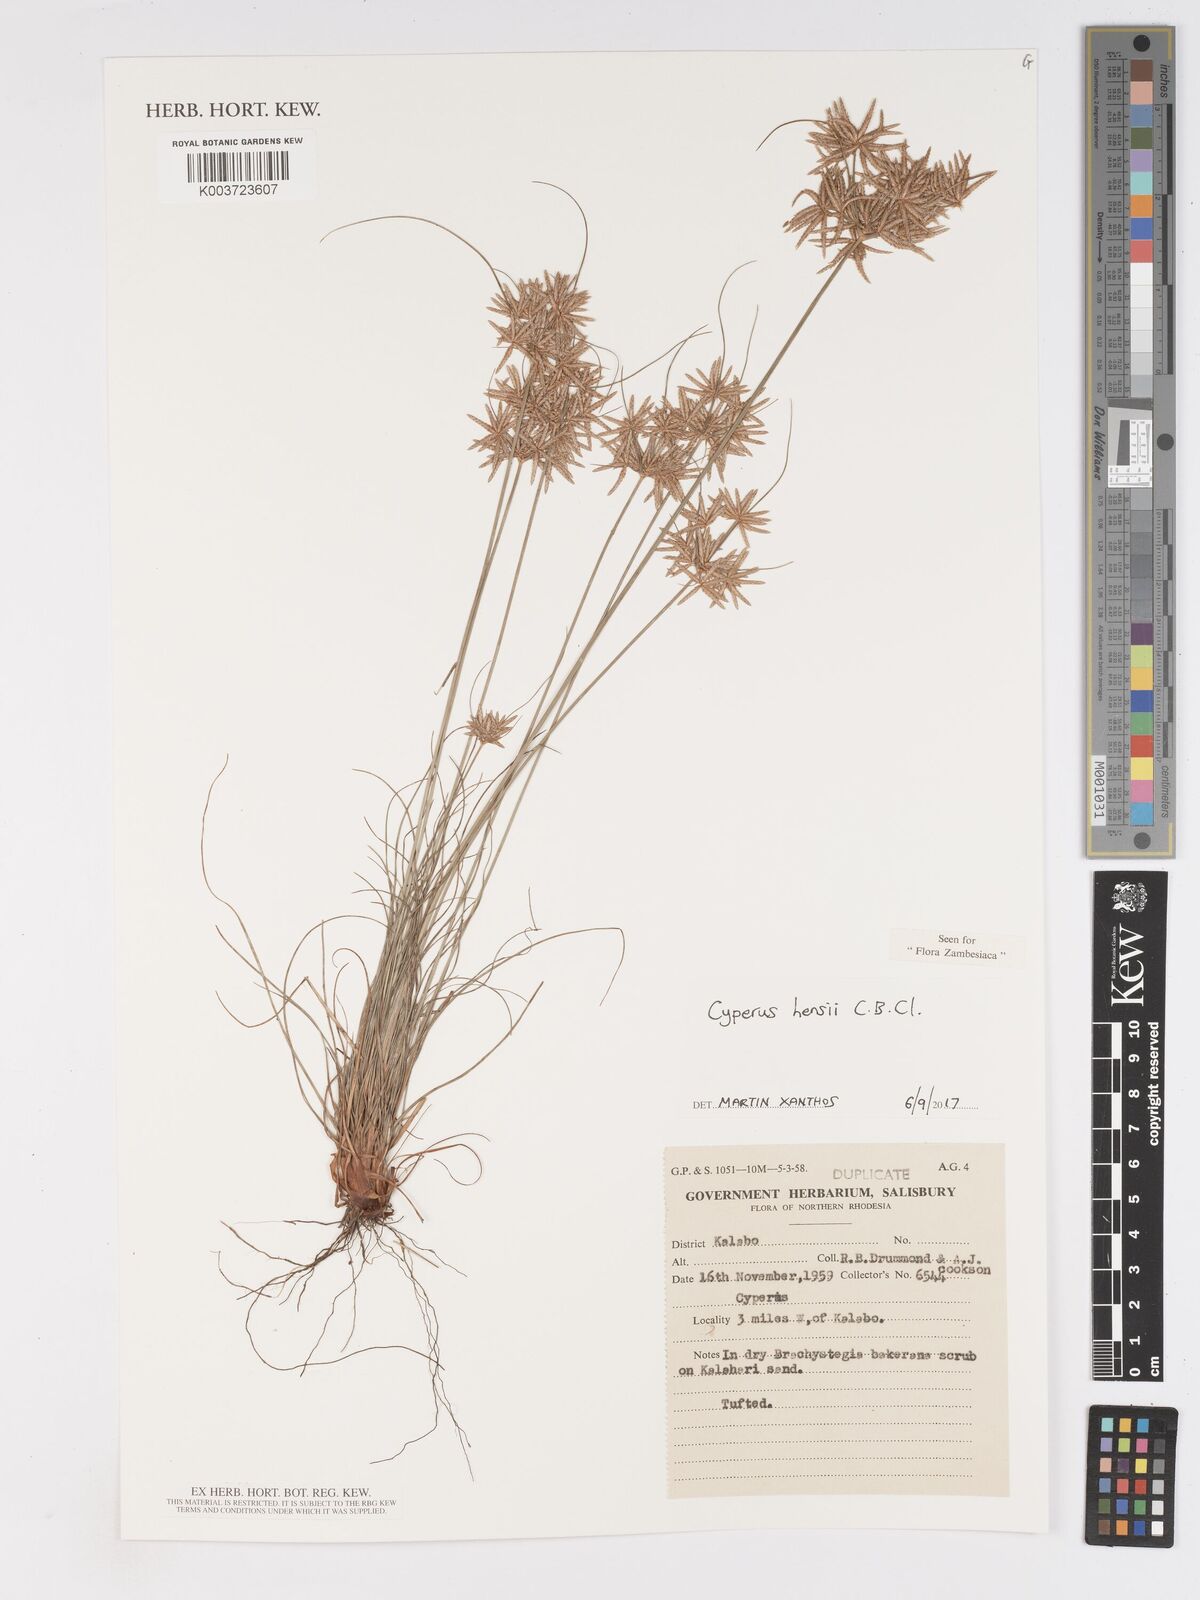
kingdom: Plantae
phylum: Tracheophyta
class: Liliopsida
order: Poales
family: Cyperaceae
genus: Cyperus
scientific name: Cyperus hensii
